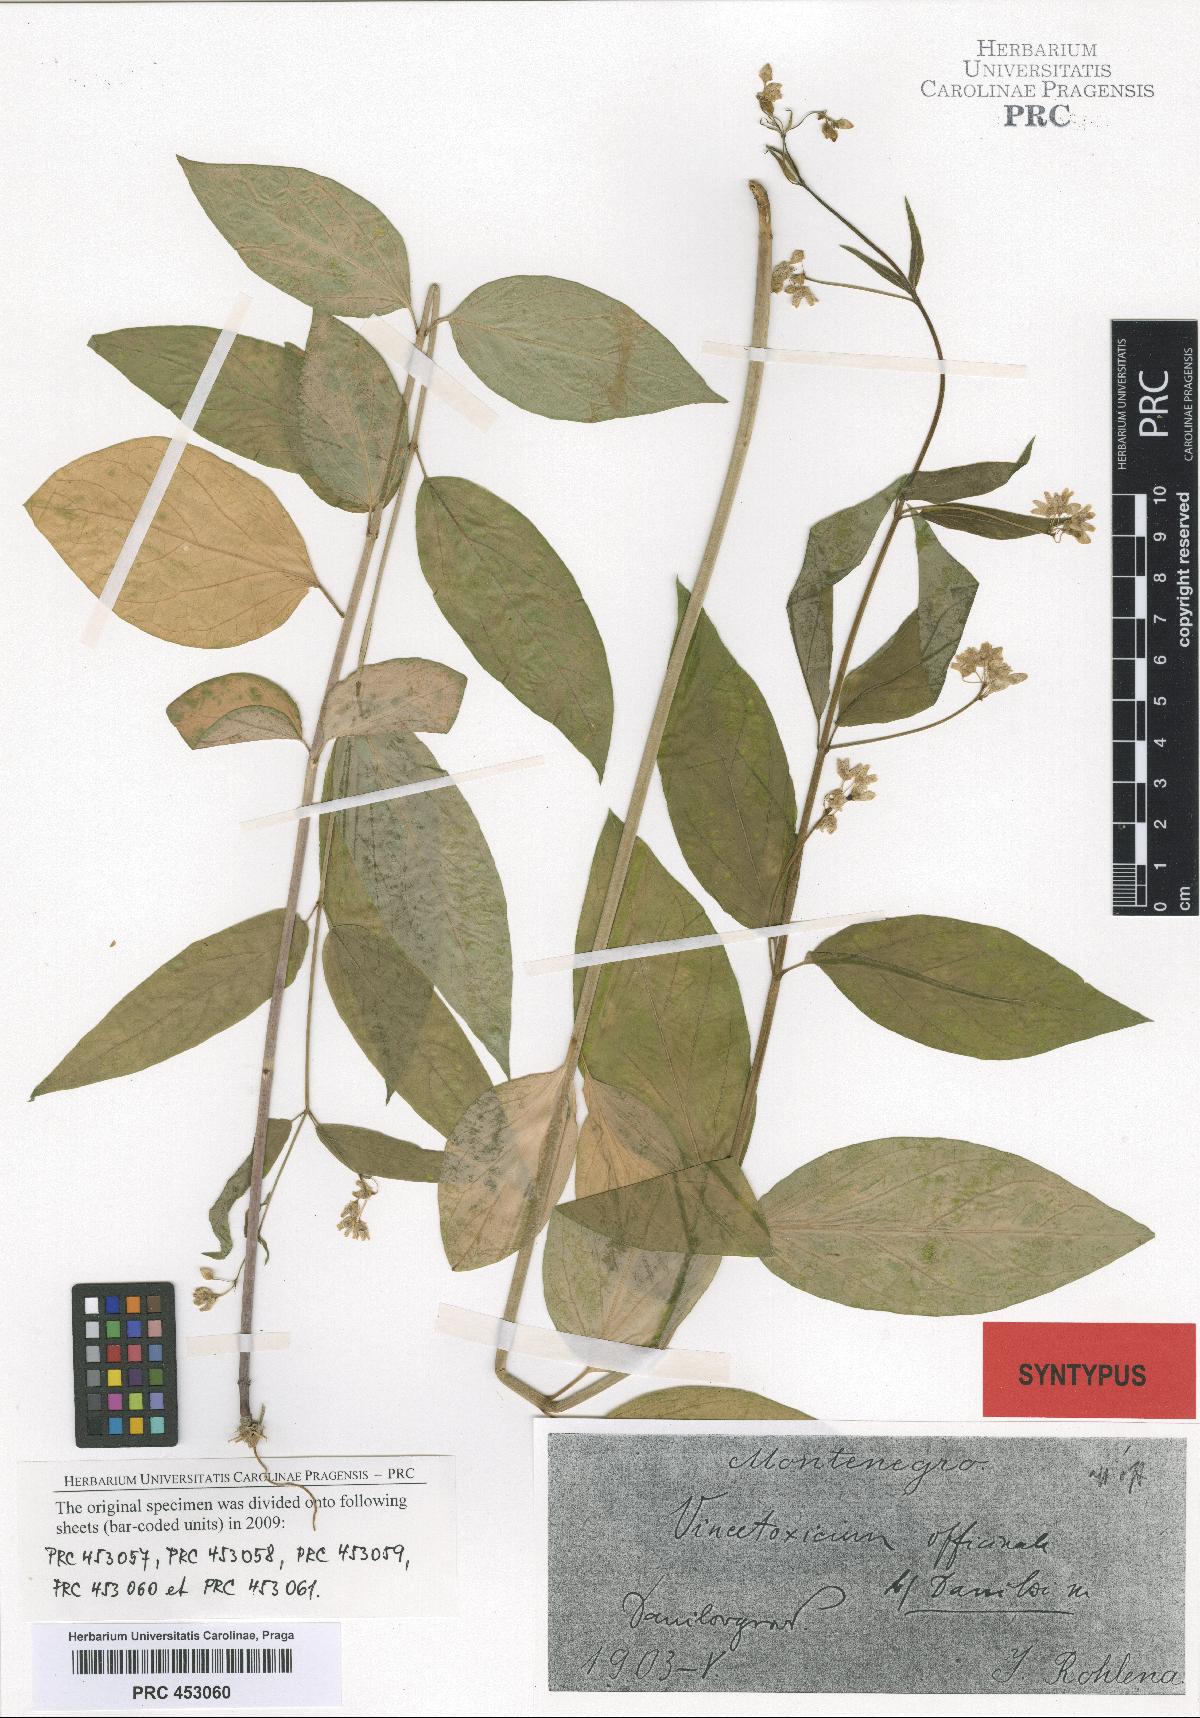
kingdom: Plantae
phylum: Tracheophyta
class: Magnoliopsida
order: Gentianales
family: Apocynaceae
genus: Vincetoxicum
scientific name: Vincetoxicum hirundinaria
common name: White swallowwort
